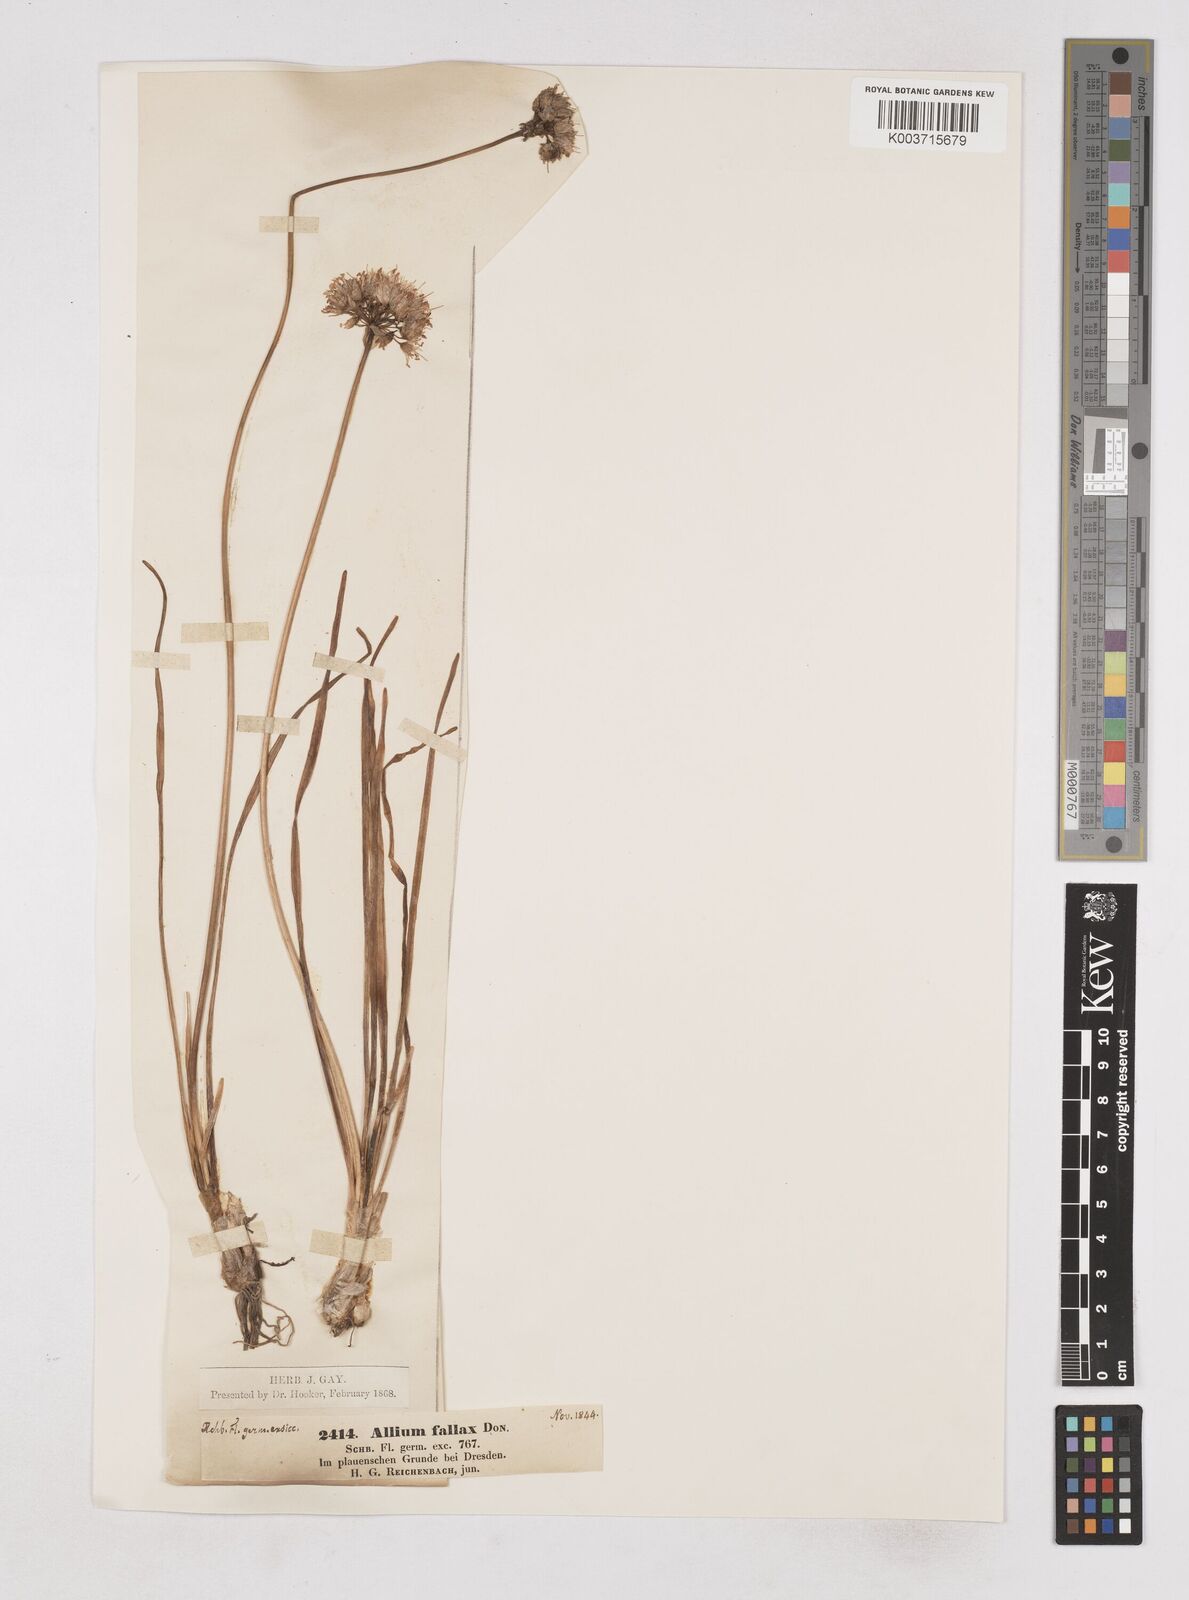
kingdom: Plantae
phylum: Tracheophyta
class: Liliopsida
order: Asparagales
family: Amaryllidaceae
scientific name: Amaryllidaceae
